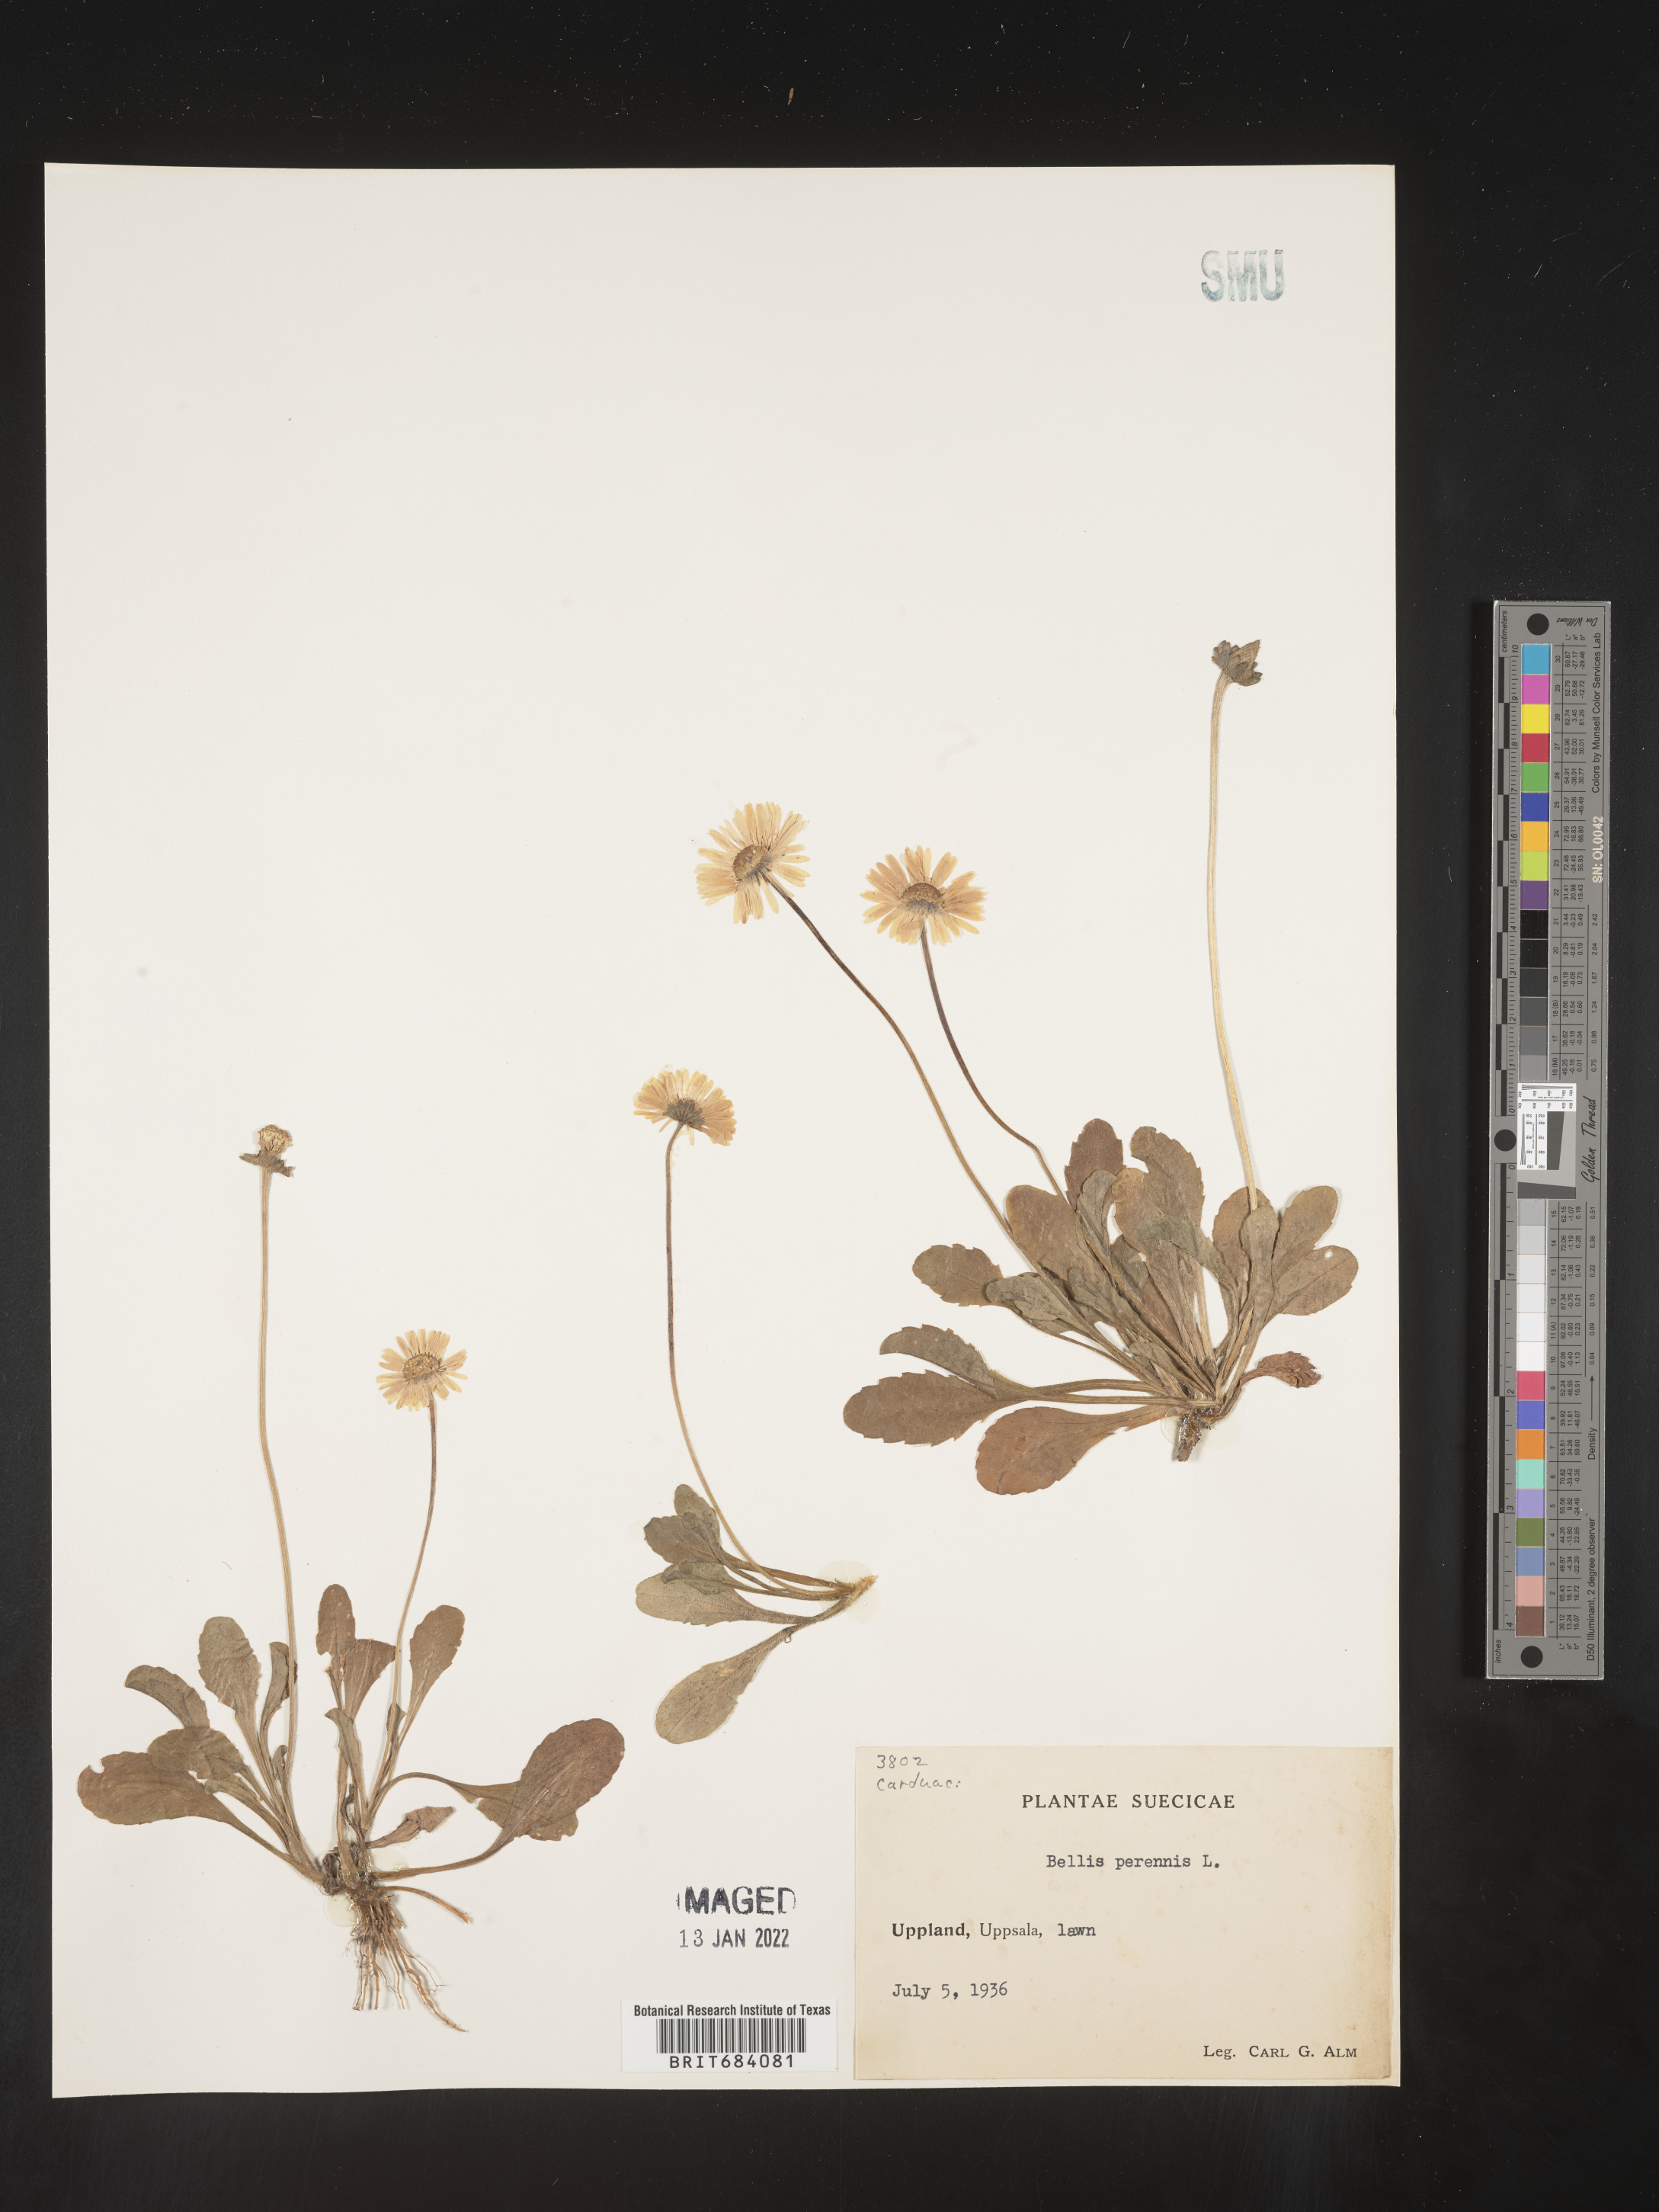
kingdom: Plantae
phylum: Tracheophyta
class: Magnoliopsida
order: Asterales
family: Asteraceae
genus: Bellis
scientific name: Bellis
